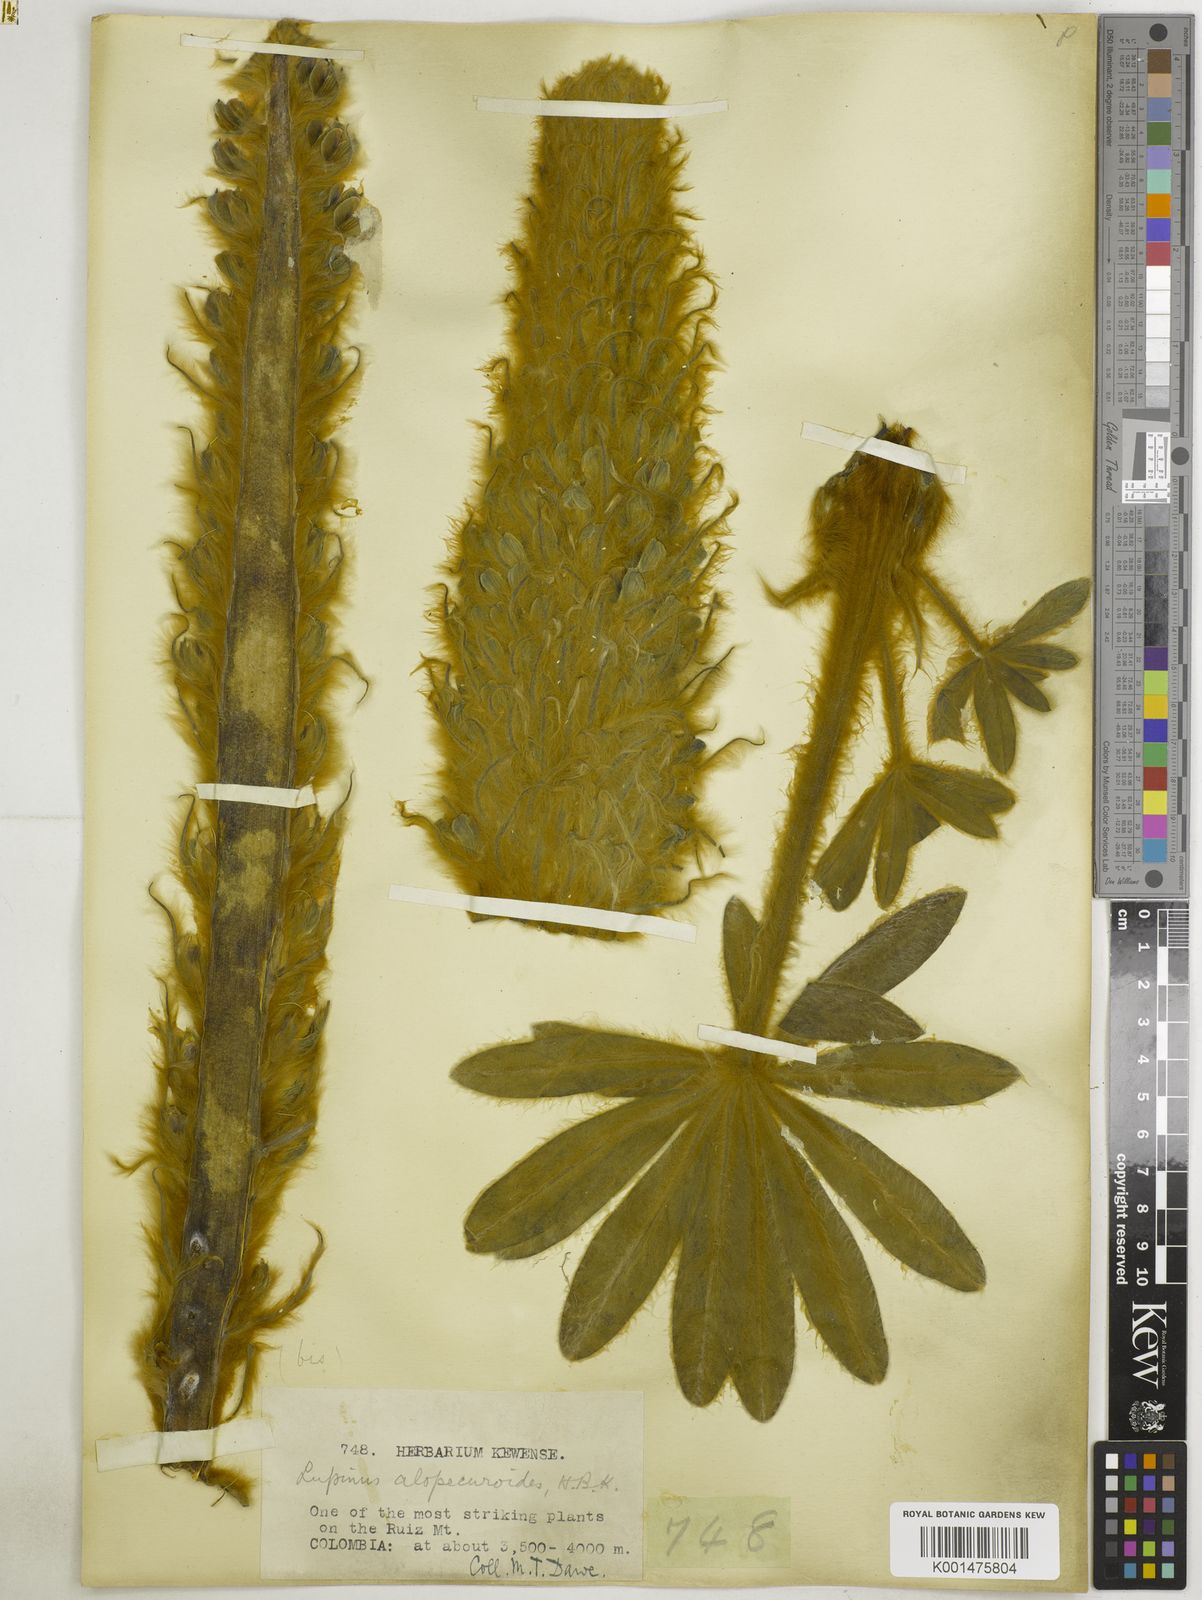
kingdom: Plantae
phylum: Tracheophyta
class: Magnoliopsida
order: Fabales
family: Fabaceae
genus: Lupinus
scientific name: Lupinus alopecuroides
